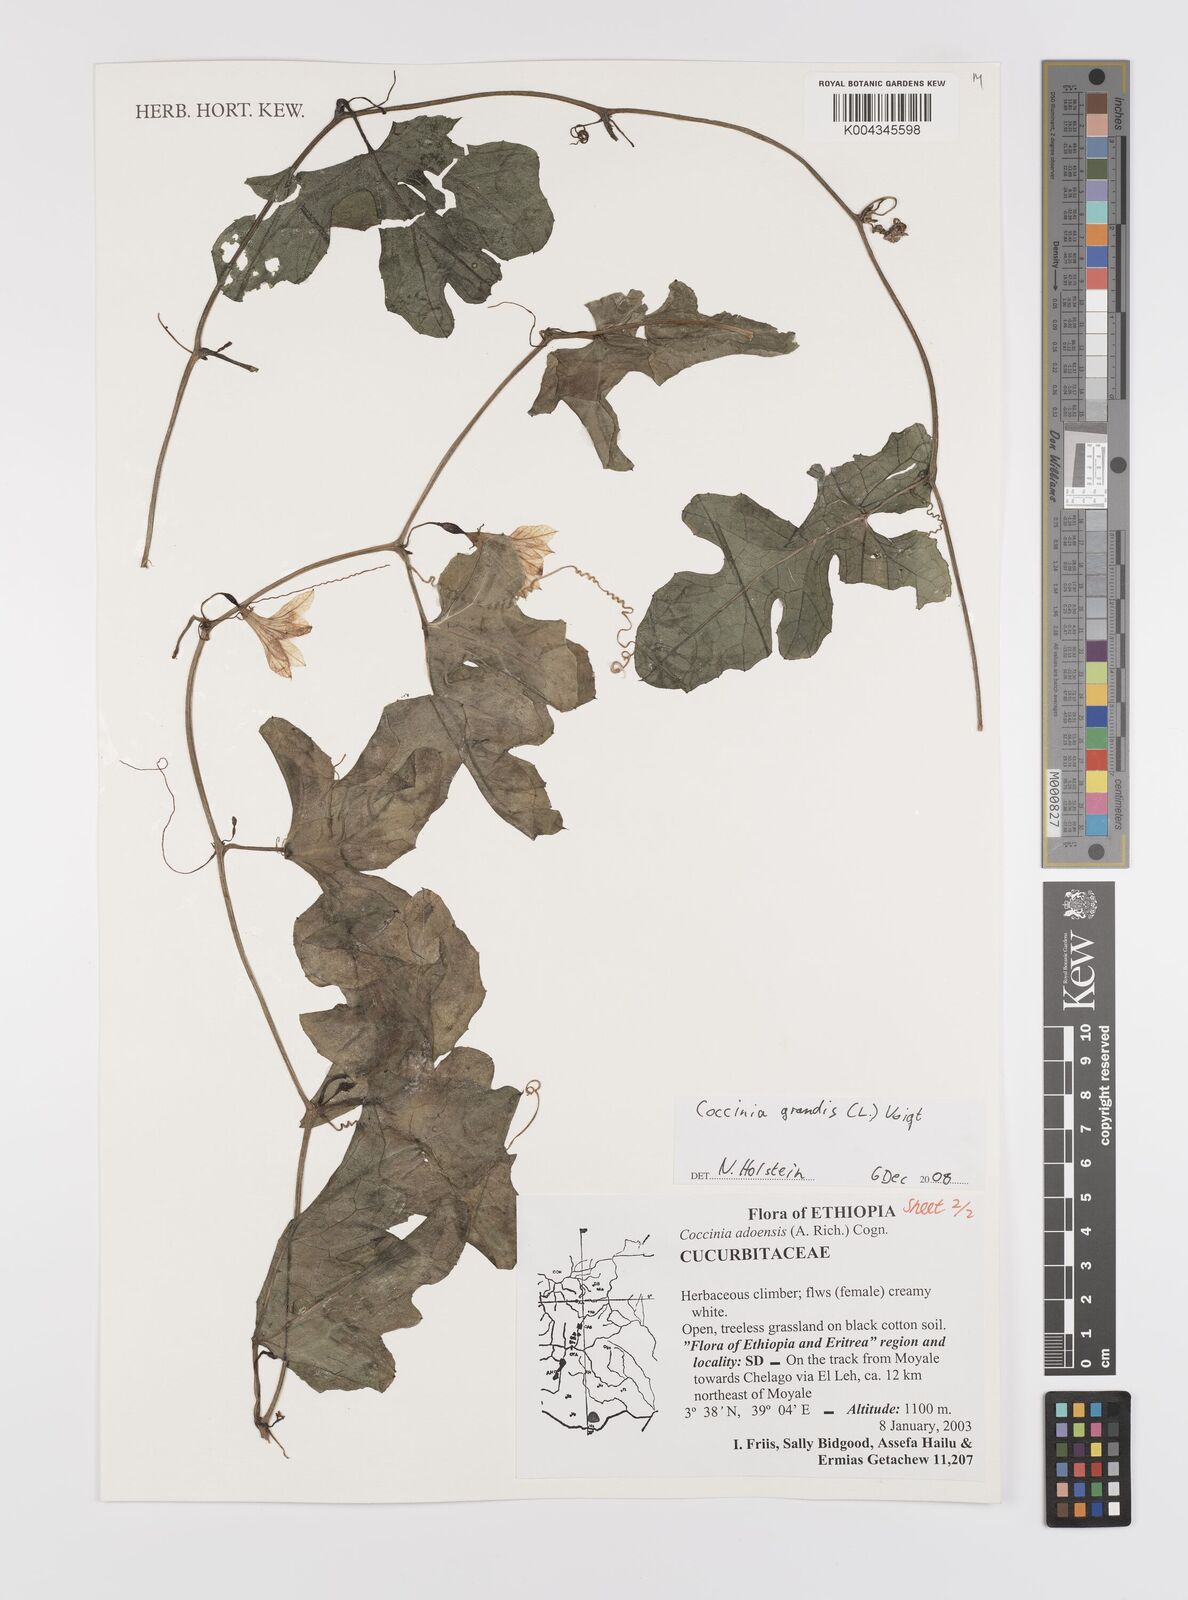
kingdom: Plantae
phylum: Tracheophyta
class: Magnoliopsida
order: Cucurbitales
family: Cucurbitaceae
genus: Coccinia
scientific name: Coccinia grandis
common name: Ivy gourd
